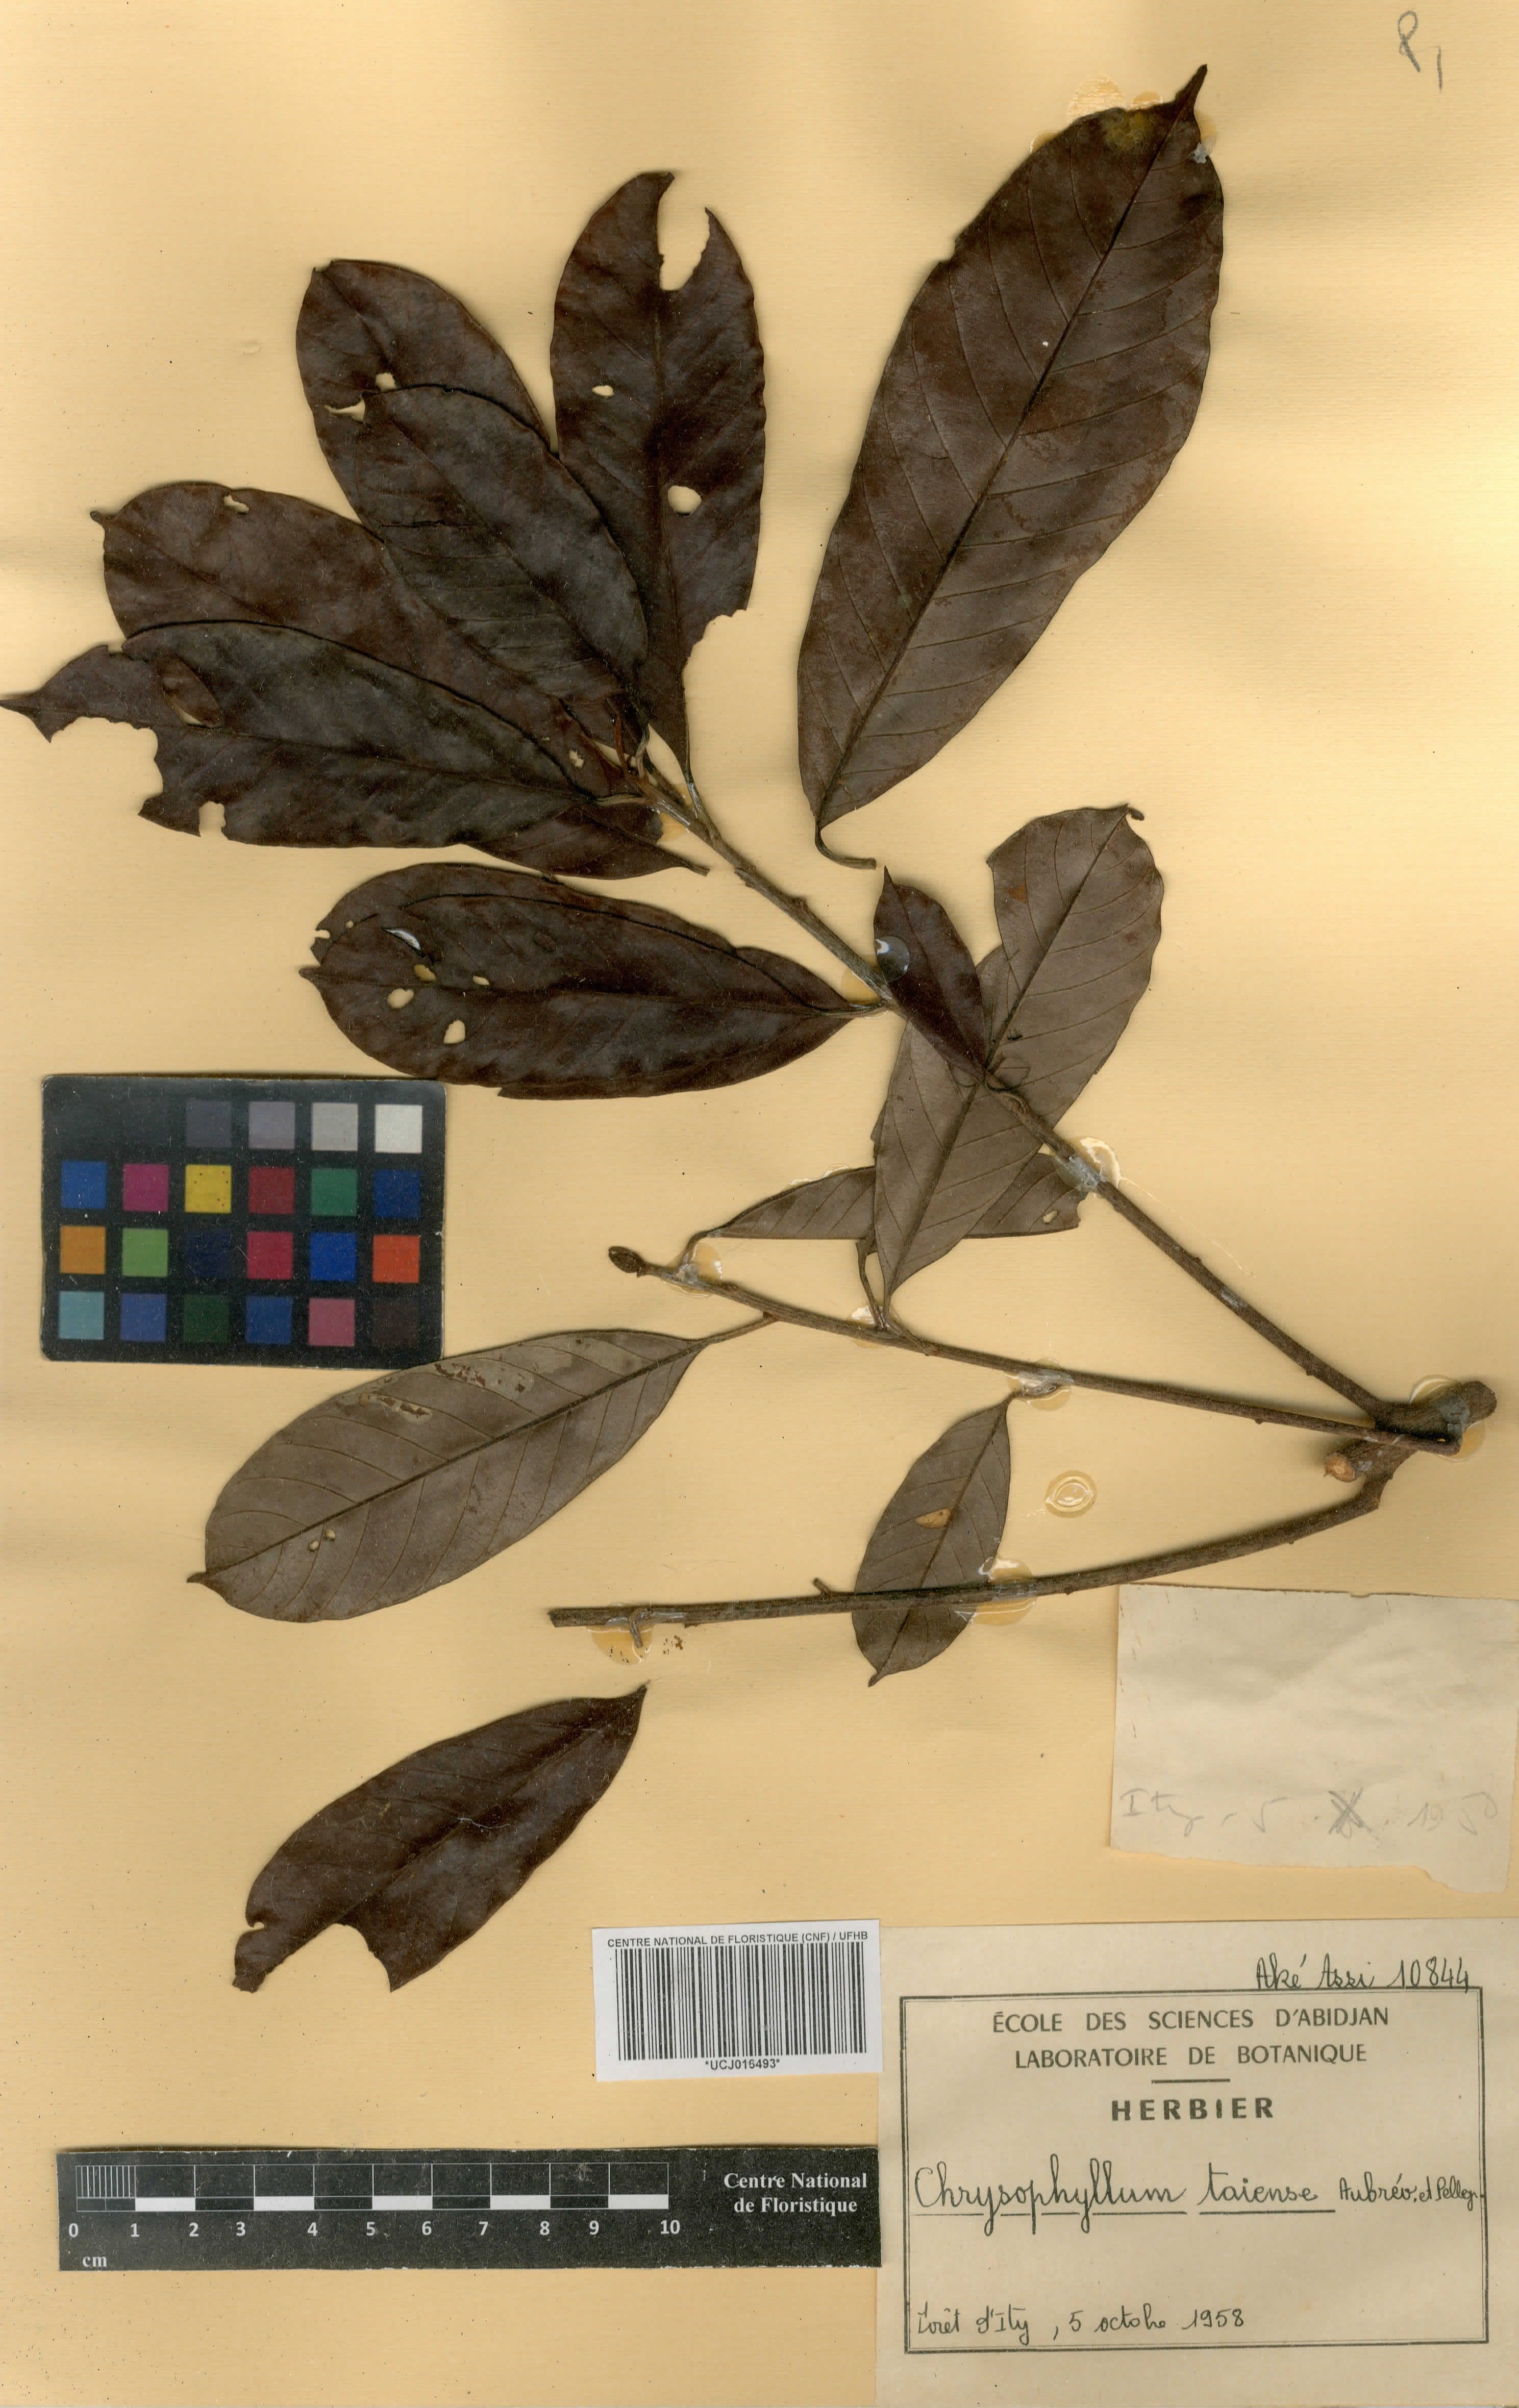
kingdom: Plantae
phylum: Tracheophyta
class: Magnoliopsida
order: Ericales
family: Sapotaceae
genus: Gambeya
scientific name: Gambeya taiensis
